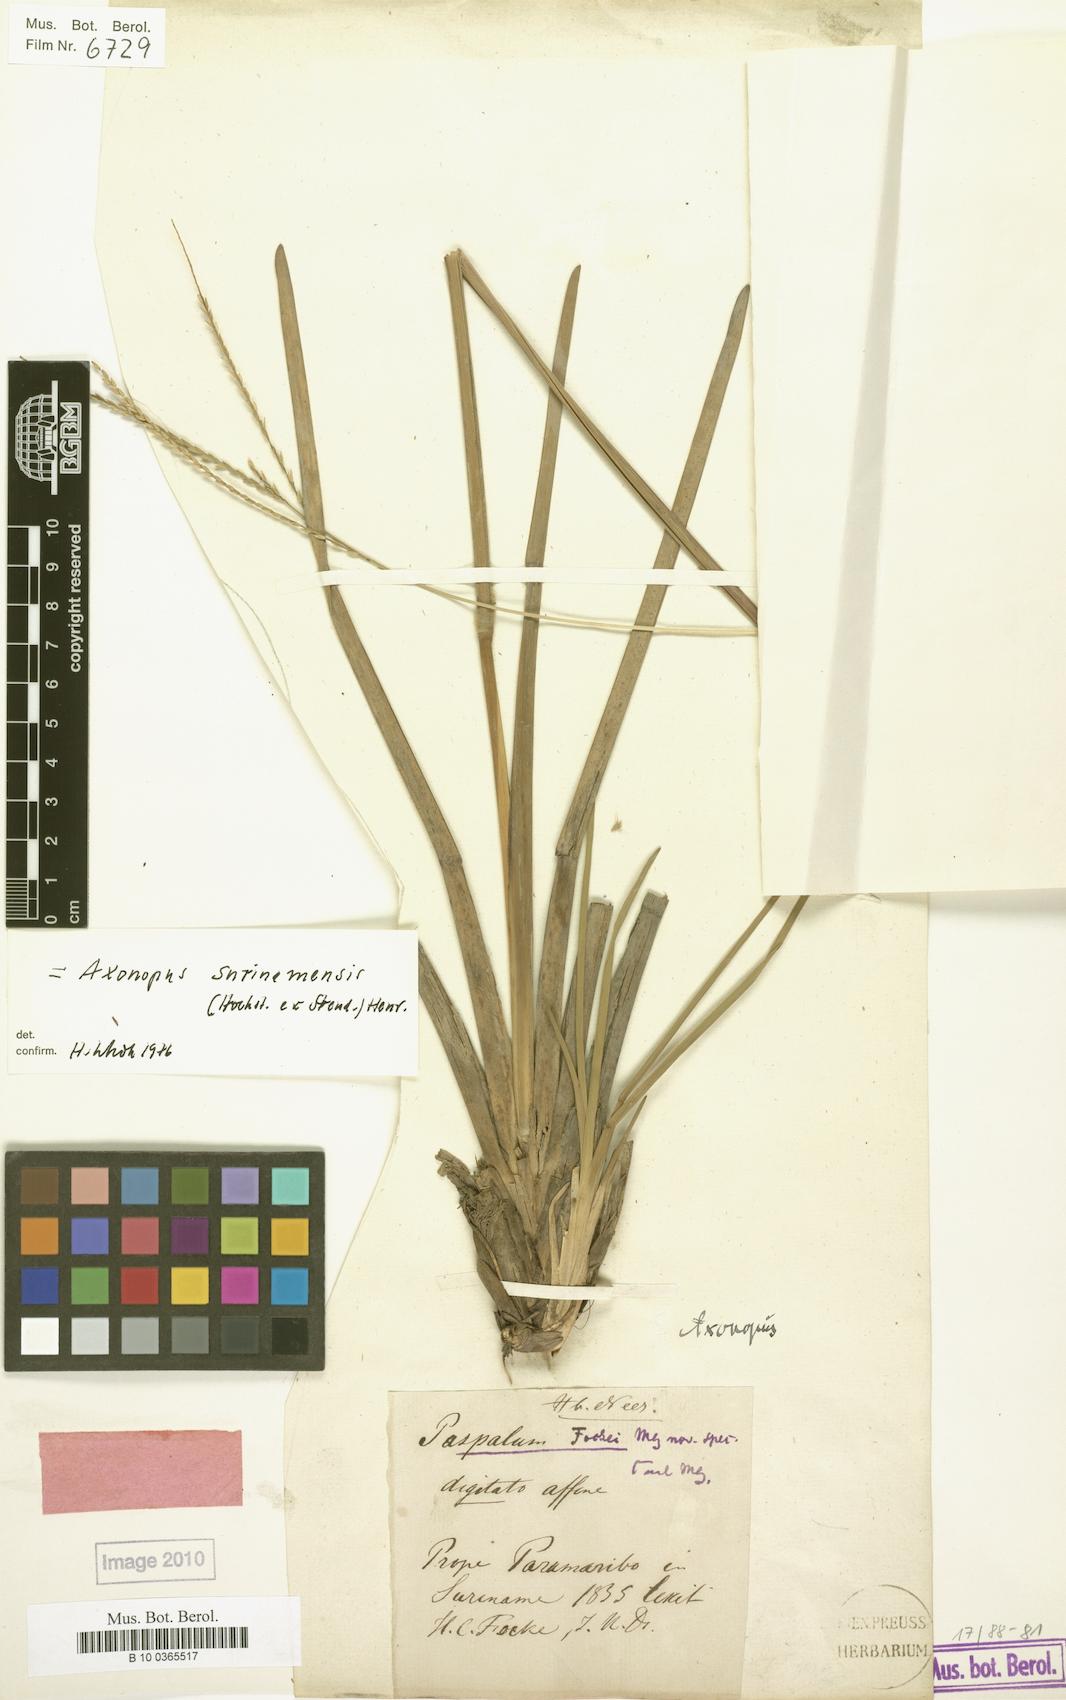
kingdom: Plantae
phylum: Tracheophyta
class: Liliopsida
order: Poales
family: Poaceae
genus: Axonopus
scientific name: Axonopus surinamensis
